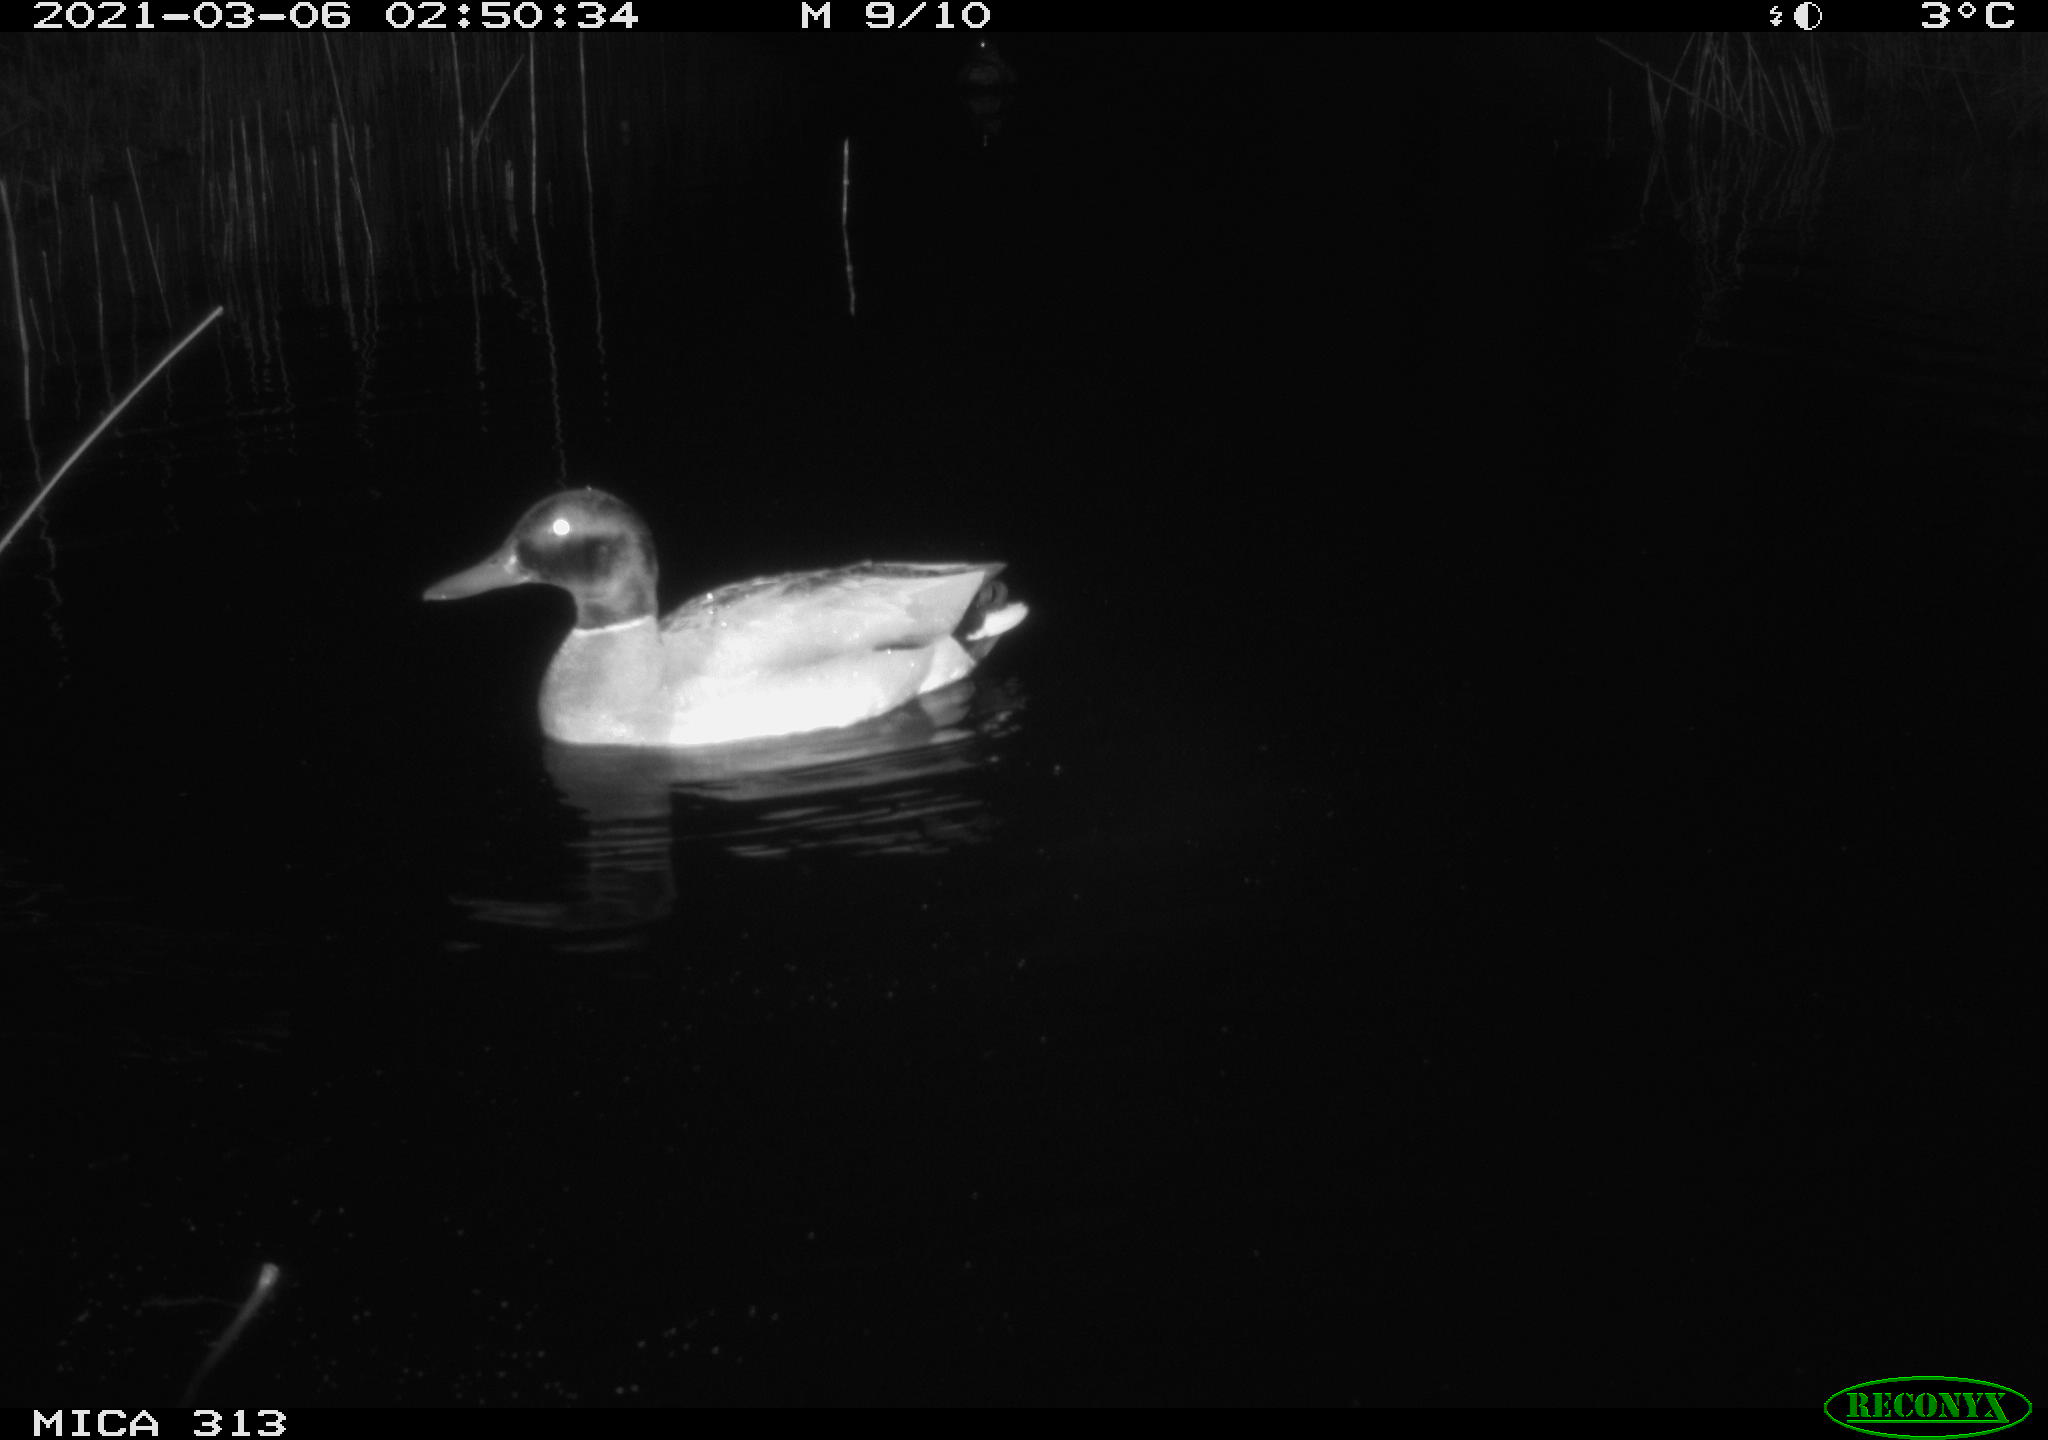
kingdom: Animalia
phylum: Chordata
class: Aves
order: Anseriformes
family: Anatidae
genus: Mareca
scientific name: Mareca strepera
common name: Gadwall
